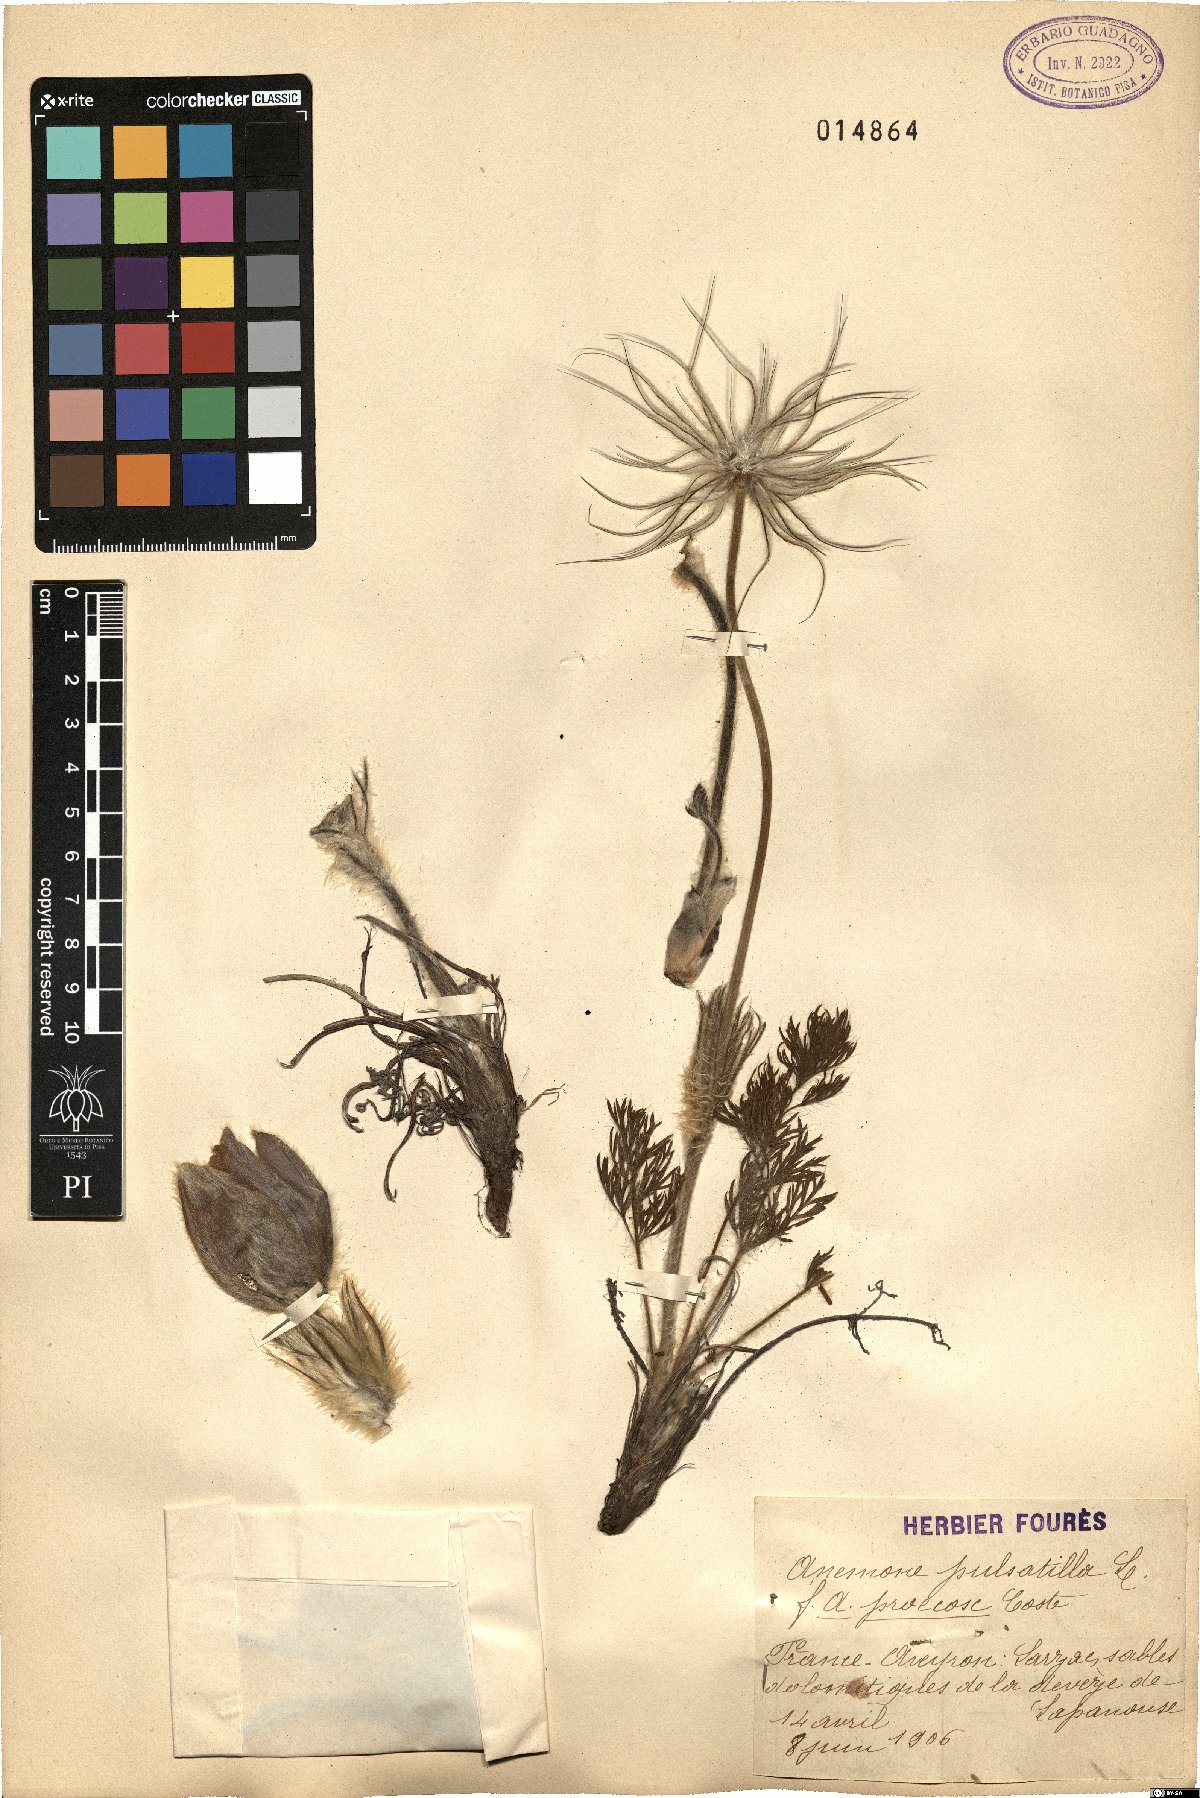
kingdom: Plantae
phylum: Tracheophyta
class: Magnoliopsida
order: Ranunculales
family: Ranunculaceae
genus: Pulsatilla
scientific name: Pulsatilla vulgaris
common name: Pasqueflower
